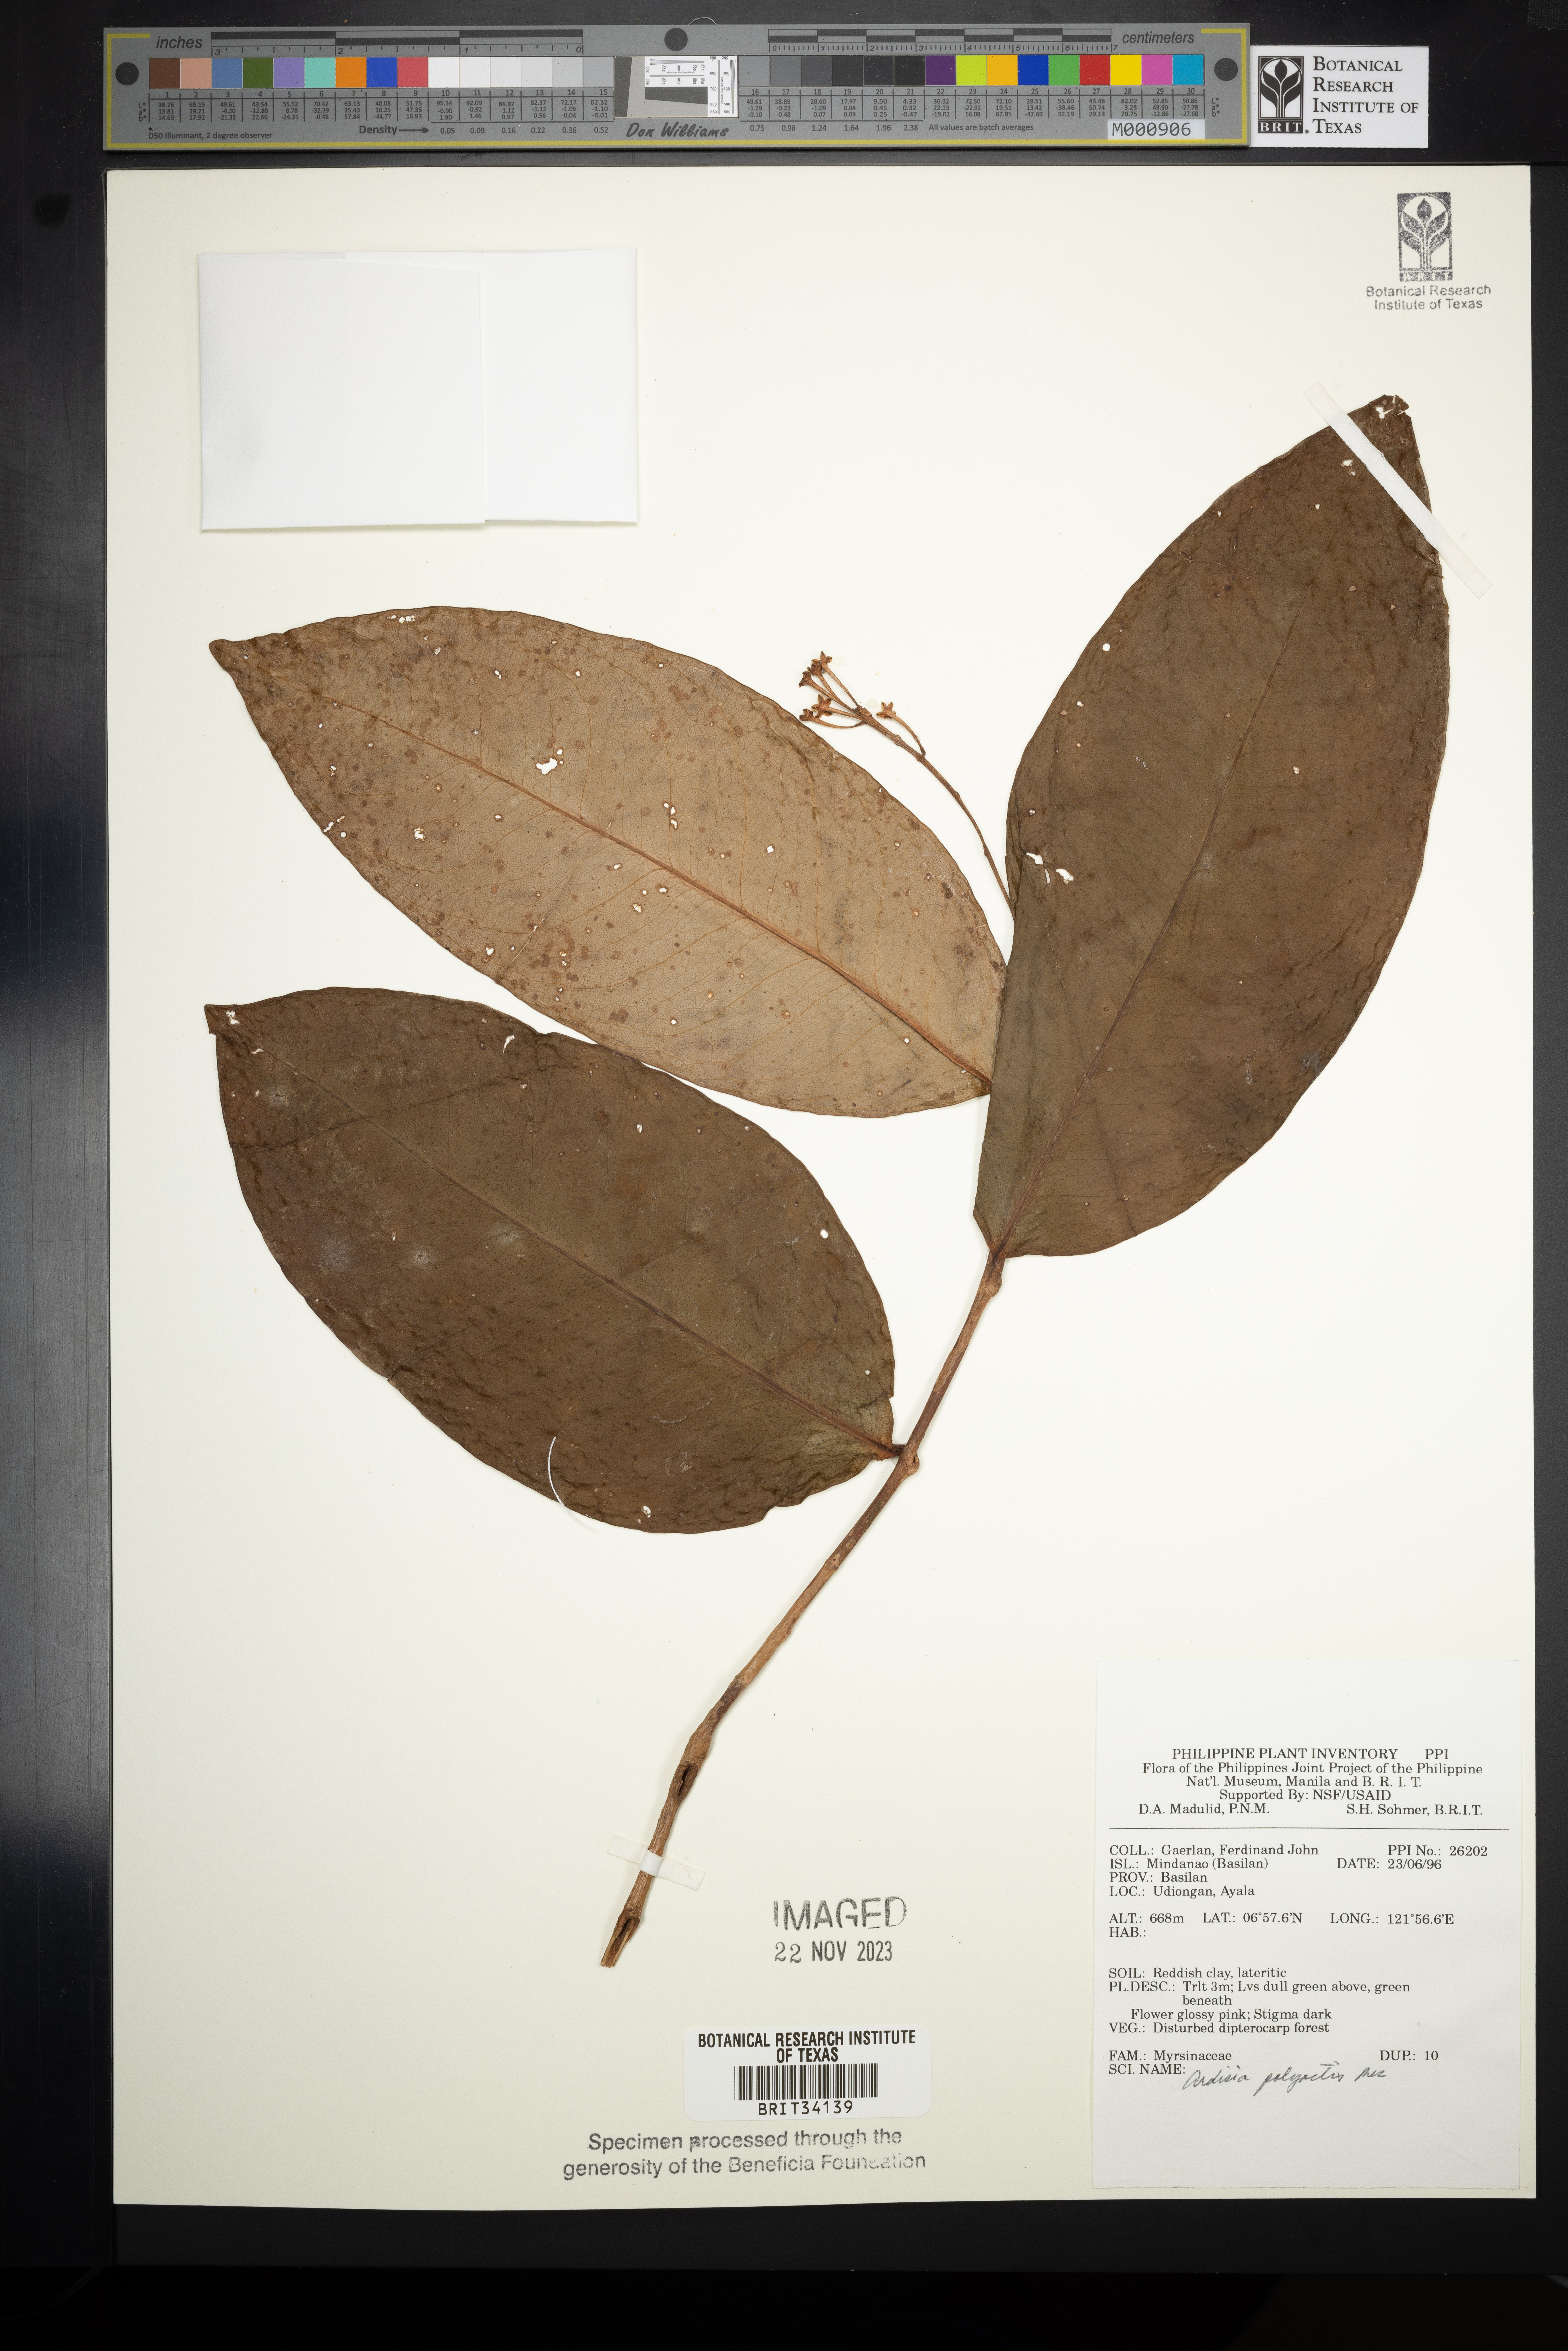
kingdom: Plantae
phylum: Tracheophyta
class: Magnoliopsida
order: Ericales
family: Primulaceae
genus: Ardisia
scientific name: Ardisia polyactis
